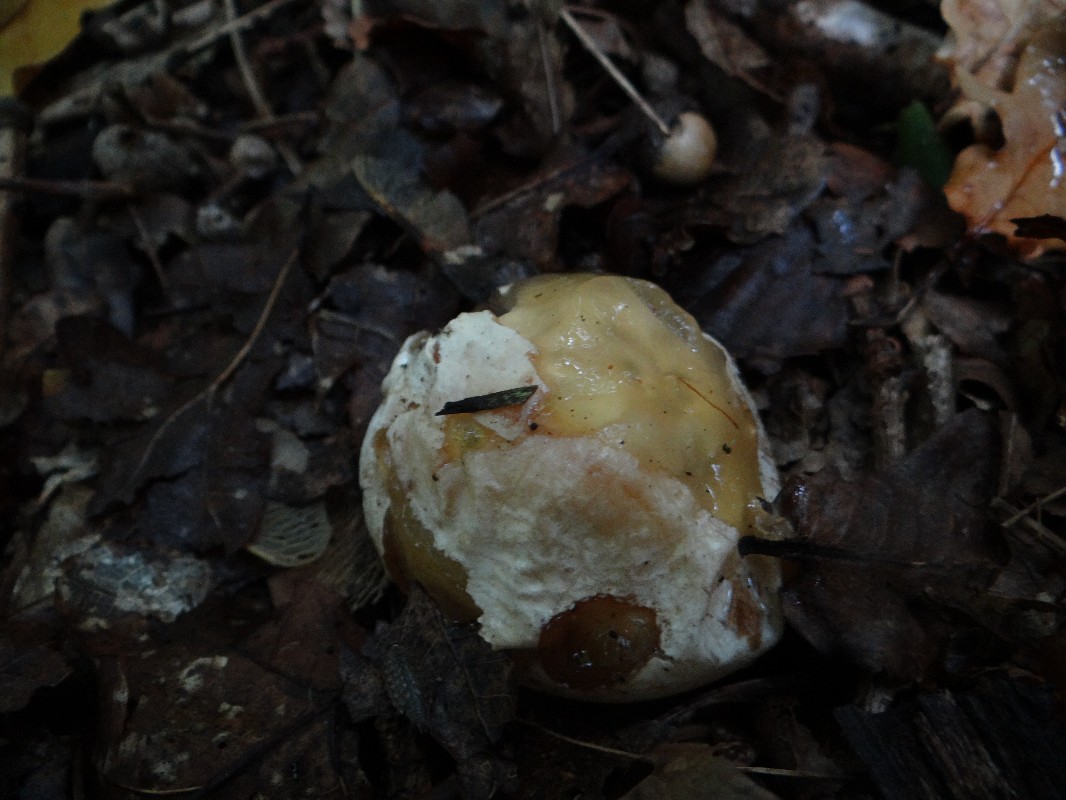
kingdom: Fungi
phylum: Basidiomycota
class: Agaricomycetes
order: Phallales
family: Phallaceae
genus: Phallus
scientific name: Phallus impudicus
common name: almindelig stinksvamp
